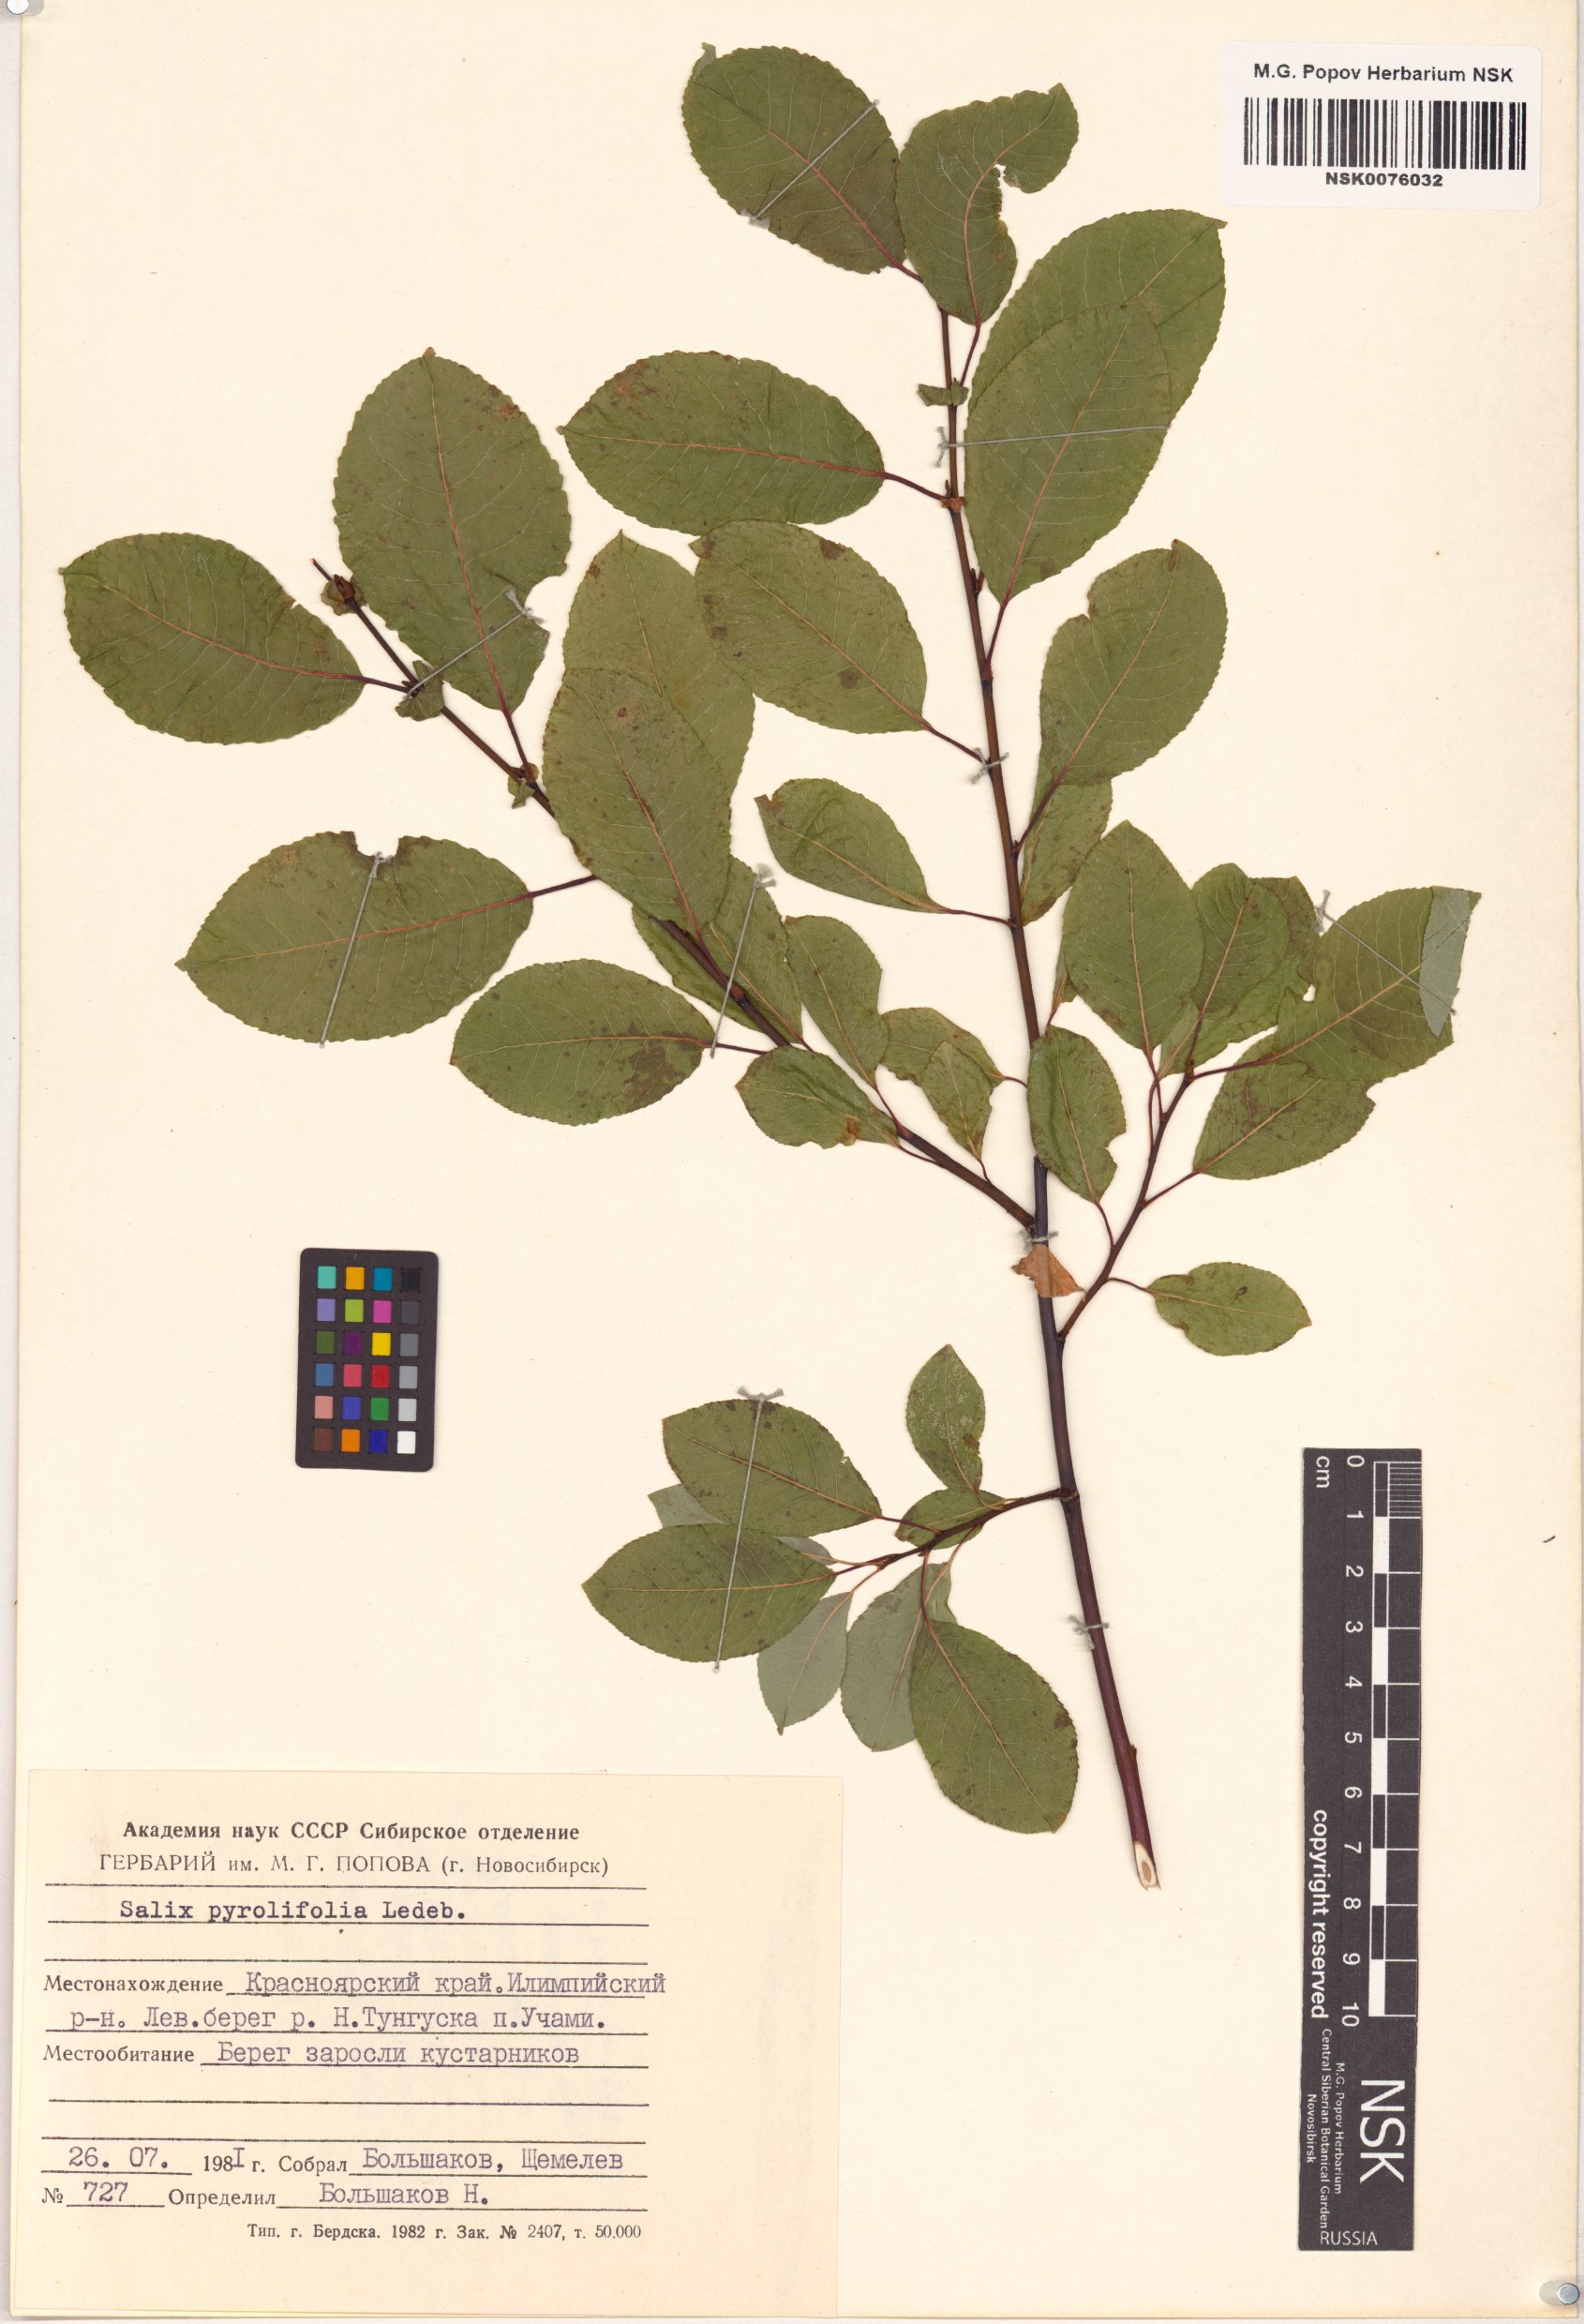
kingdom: Plantae
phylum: Tracheophyta
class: Magnoliopsida
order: Malpighiales
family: Salicaceae
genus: Salix
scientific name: Salix pyrolifolia
